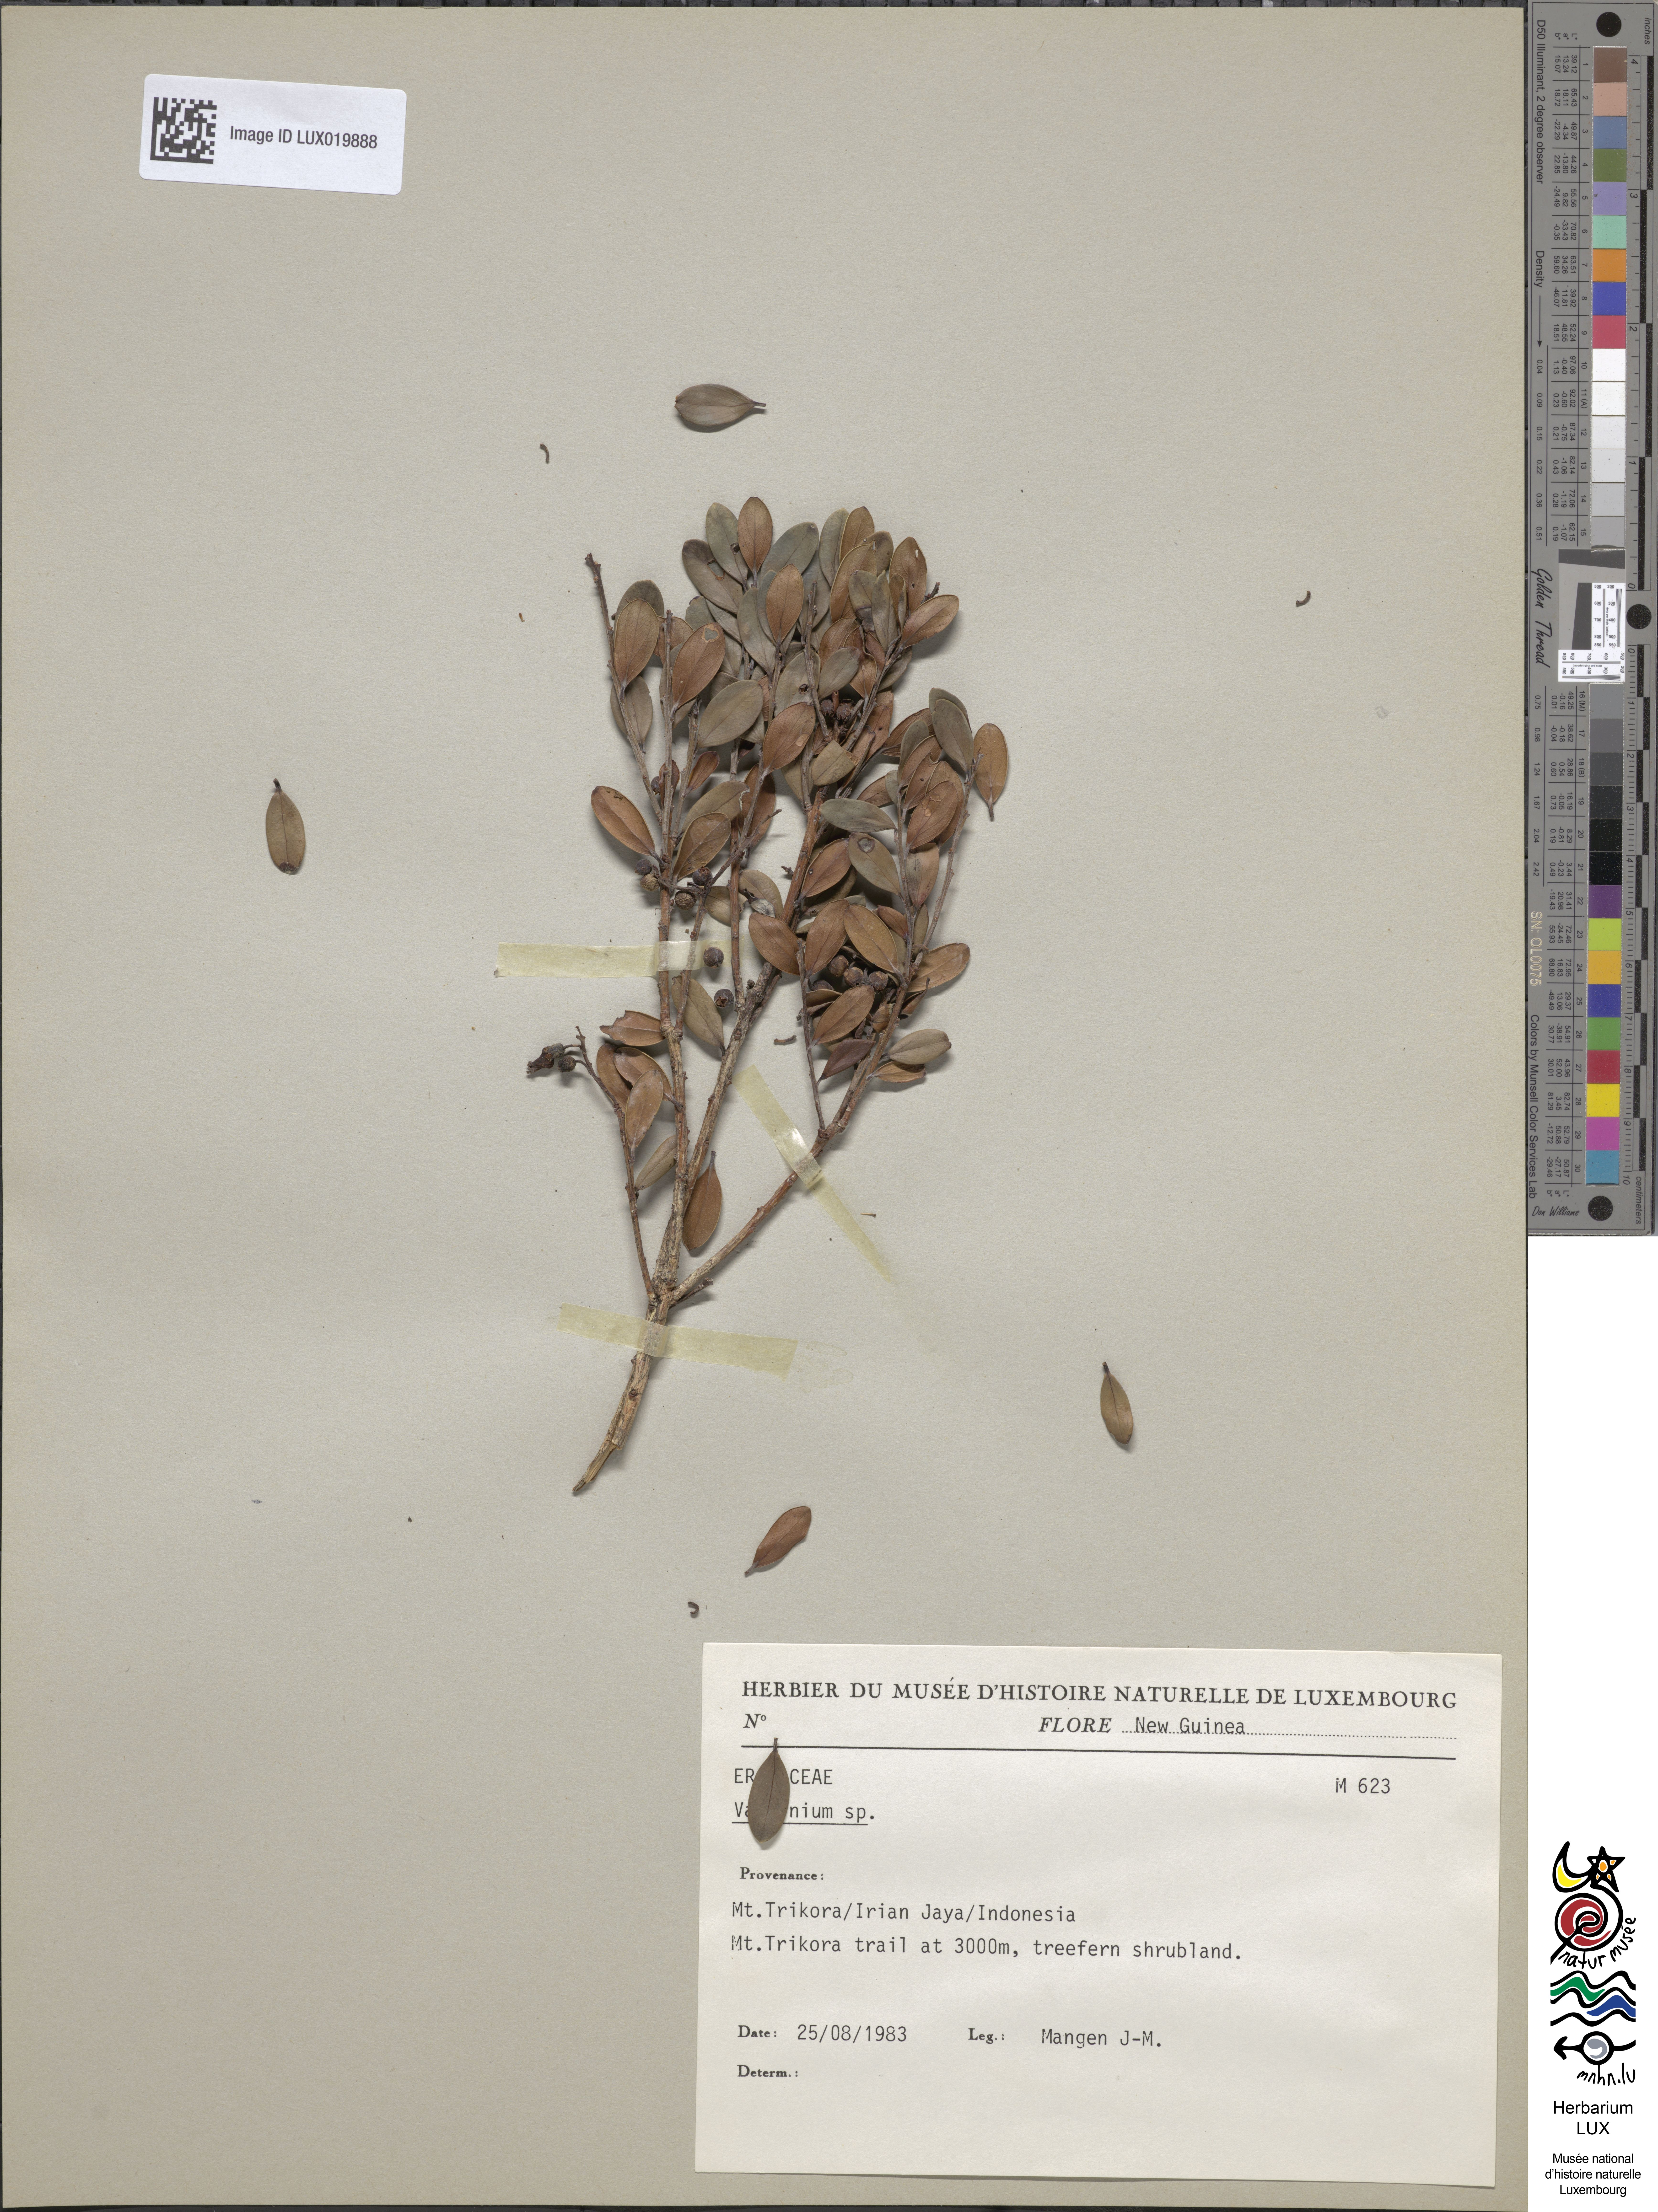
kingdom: Plantae
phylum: Tracheophyta
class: Magnoliopsida
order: Ericales
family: Ericaceae
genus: Vaccinium
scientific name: Vaccinium
